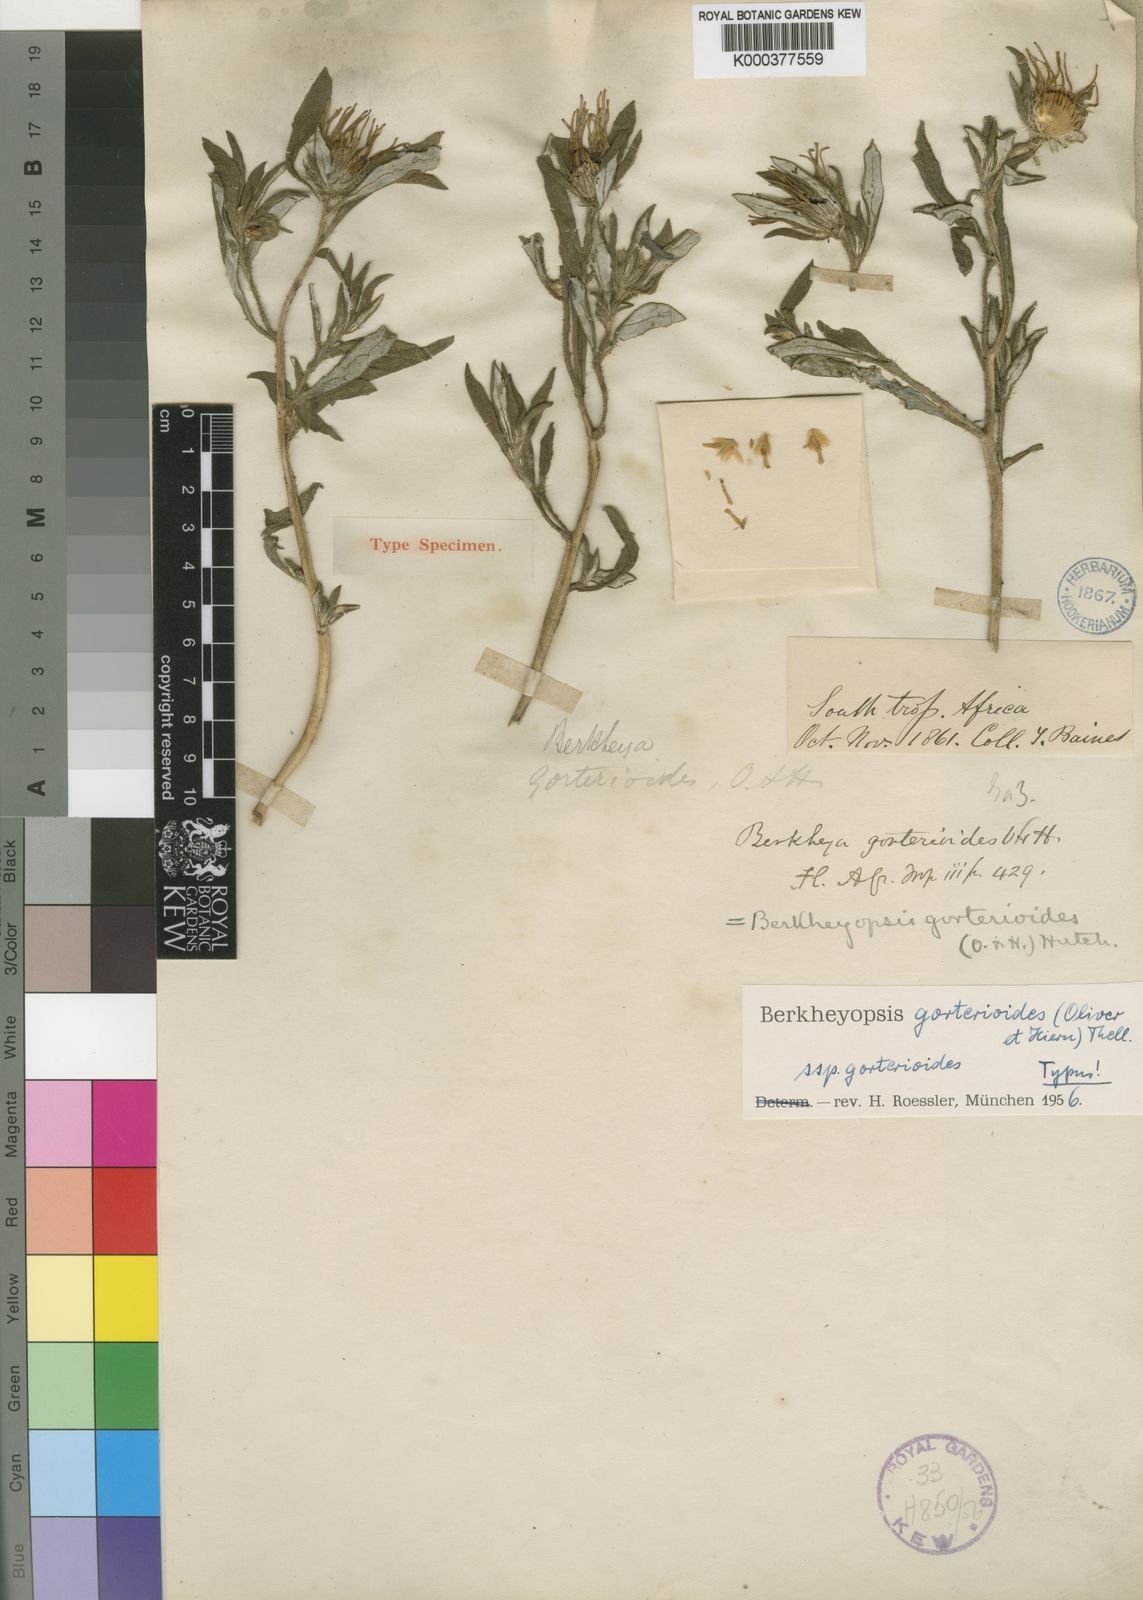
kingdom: Plantae
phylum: Tracheophyta
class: Magnoliopsida
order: Asterales
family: Asteraceae
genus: Roessleria
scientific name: Roessleria gorterioides
